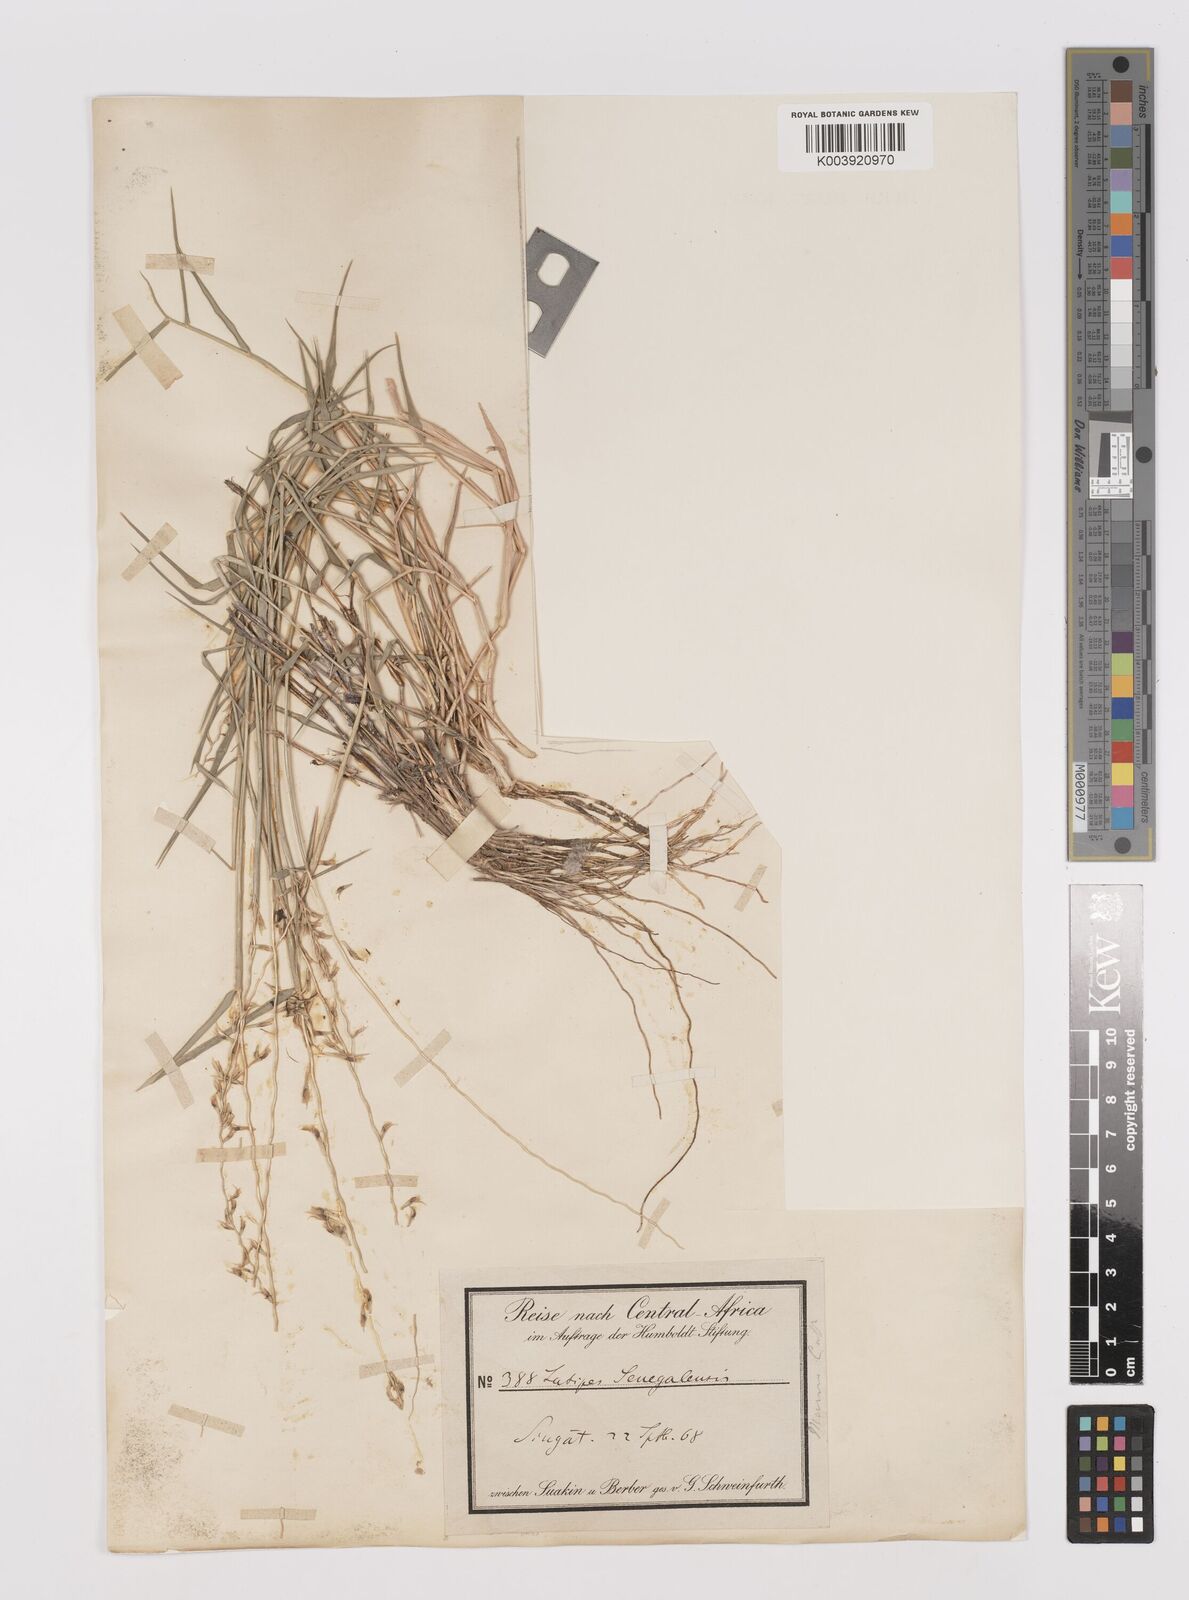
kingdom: Plantae
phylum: Tracheophyta
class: Liliopsida
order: Poales
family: Poaceae
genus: Leptothrium
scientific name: Leptothrium senegalense
